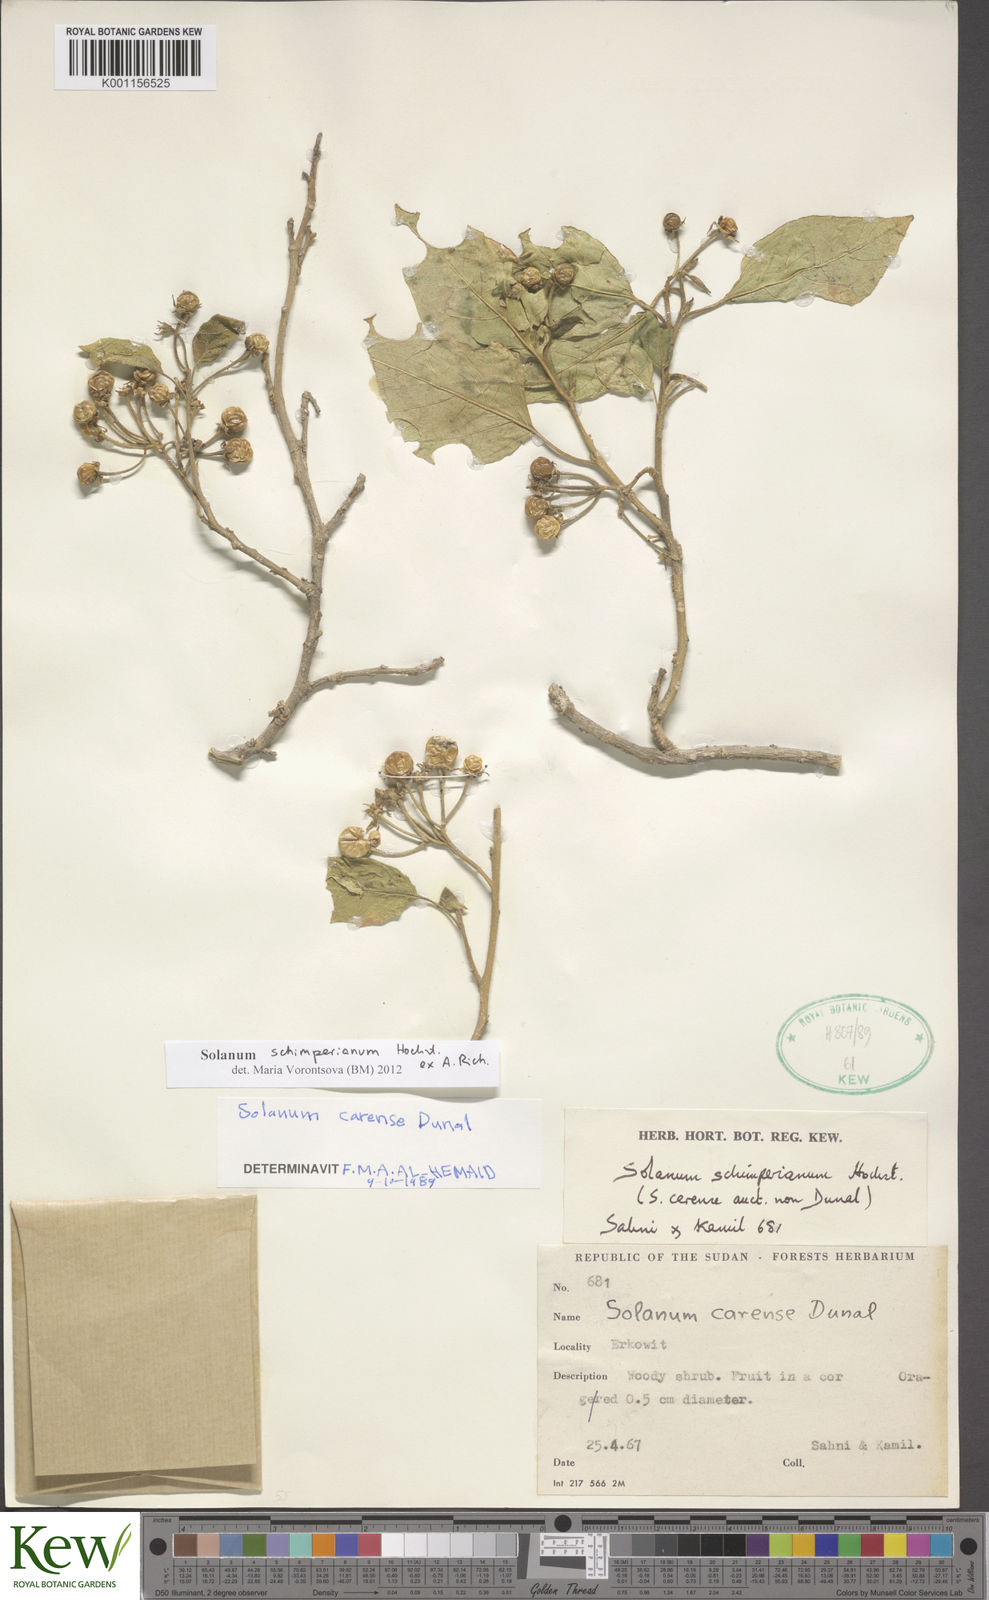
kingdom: Plantae
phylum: Tracheophyta
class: Magnoliopsida
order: Solanales
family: Solanaceae
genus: Solanum
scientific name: Solanum
